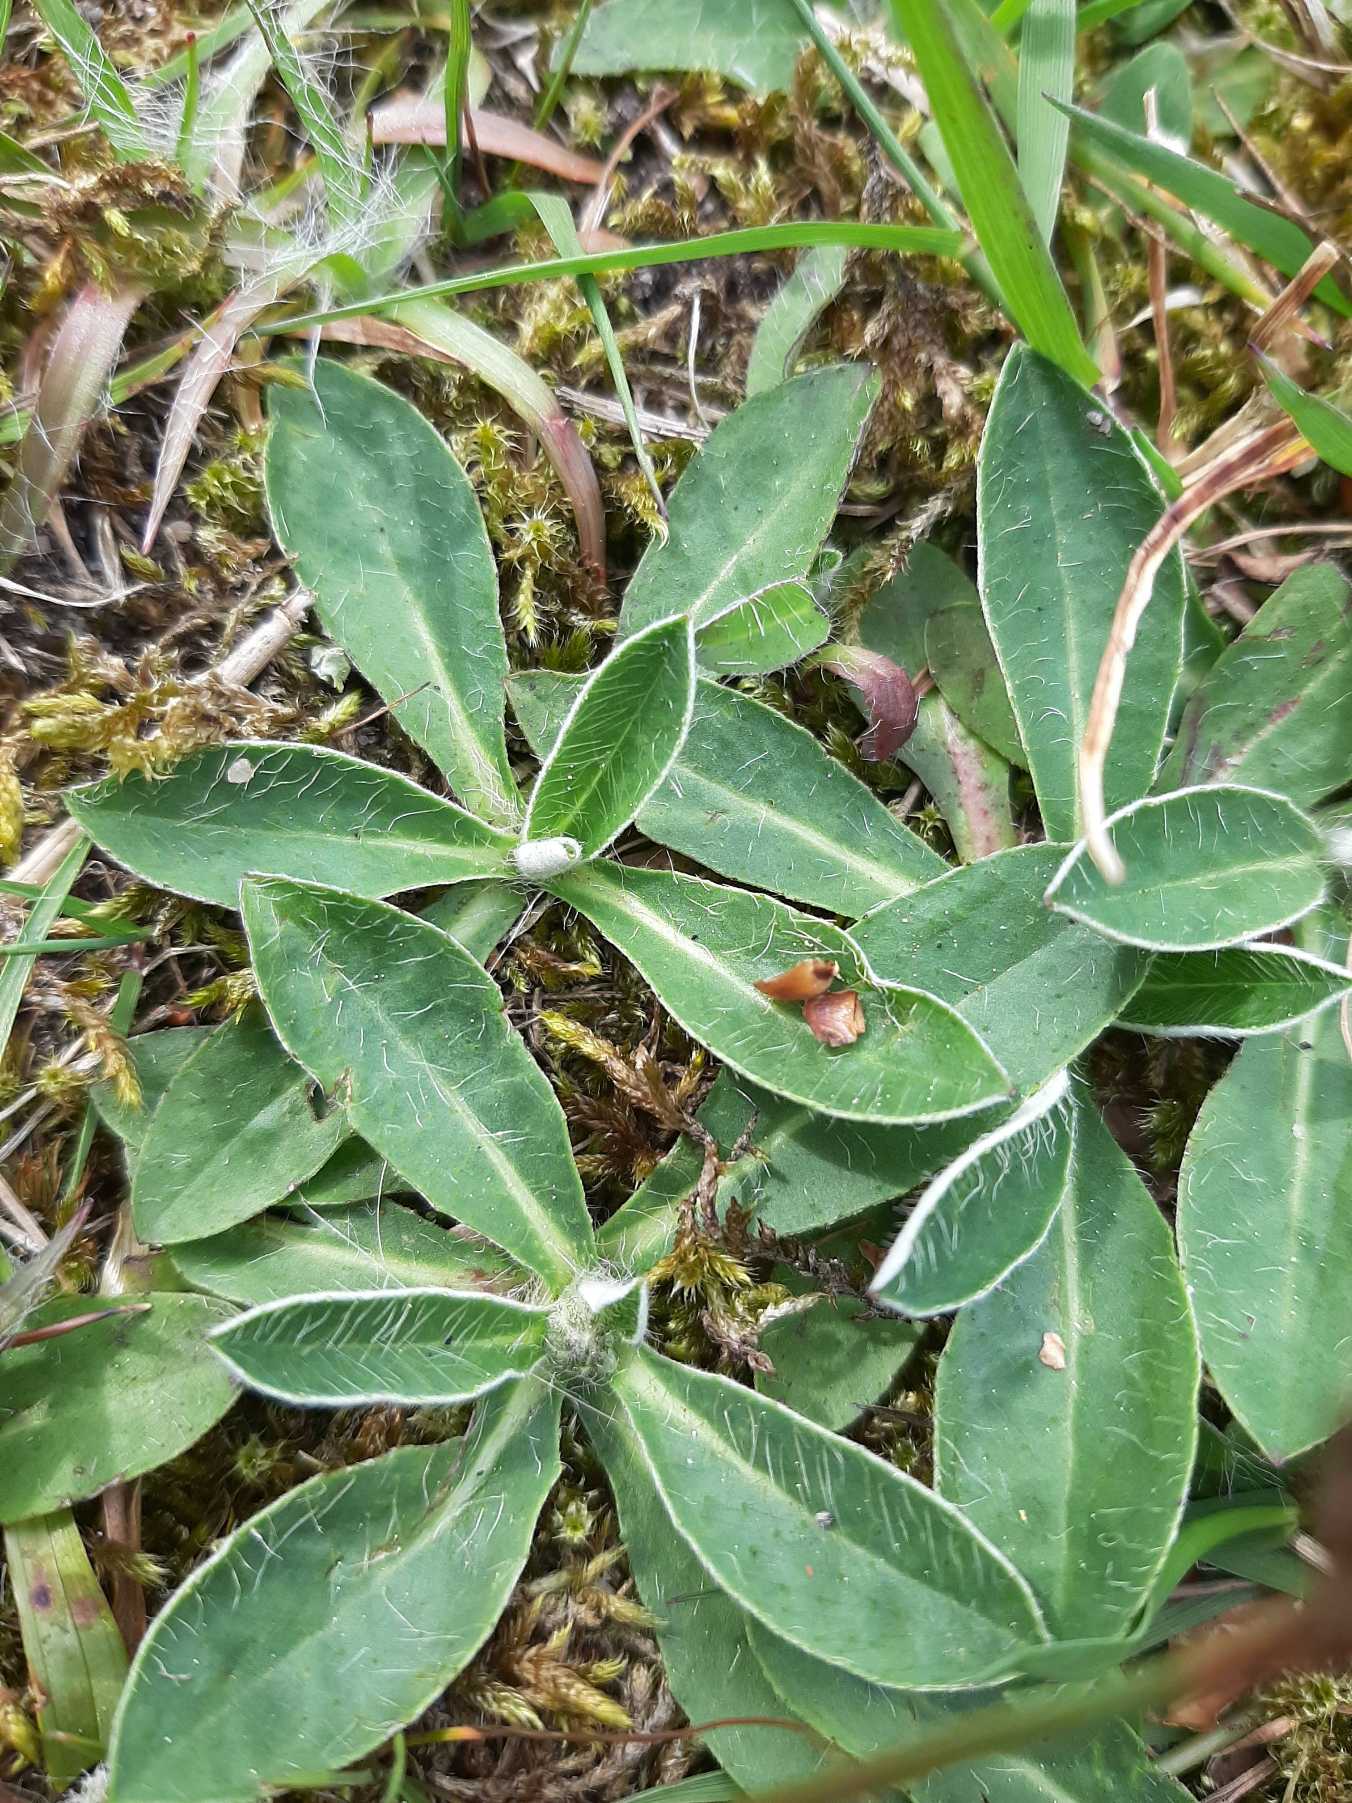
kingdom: Plantae
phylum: Tracheophyta
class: Magnoliopsida
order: Asterales
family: Asteraceae
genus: Pilosella
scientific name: Pilosella officinarum
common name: Håret høgeurt
